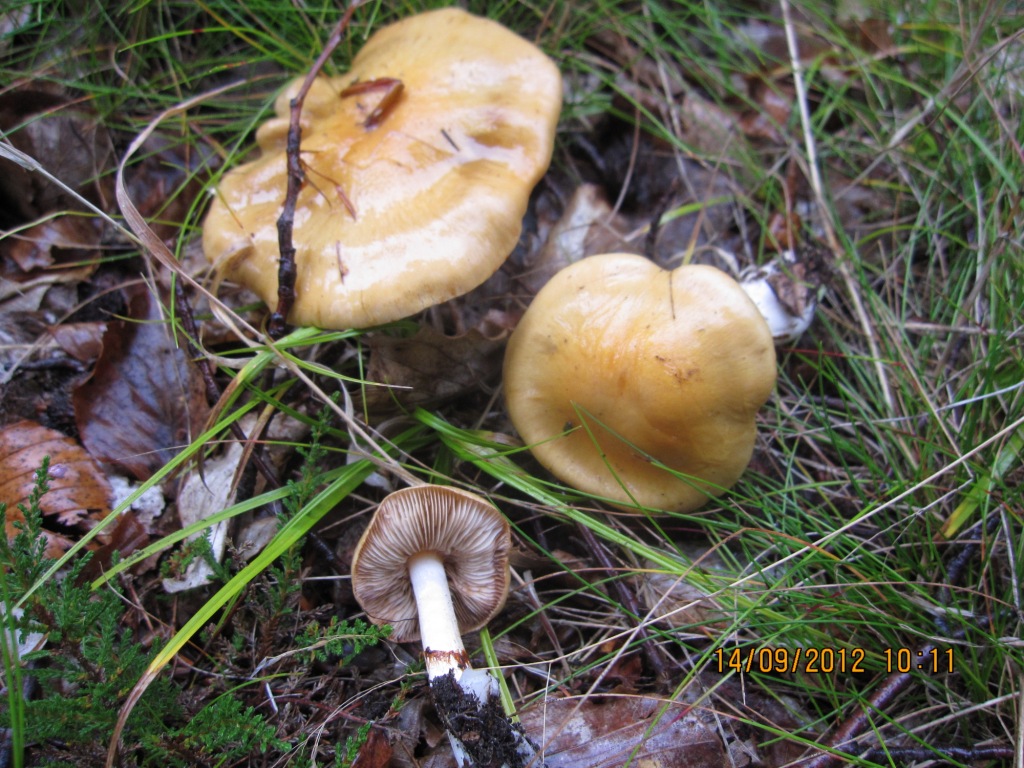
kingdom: Fungi
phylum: Basidiomycota
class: Agaricomycetes
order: Agaricales
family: Cortinariaceae
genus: Thaxterogaster
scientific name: Thaxterogaster emollitus
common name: besk slørhat
